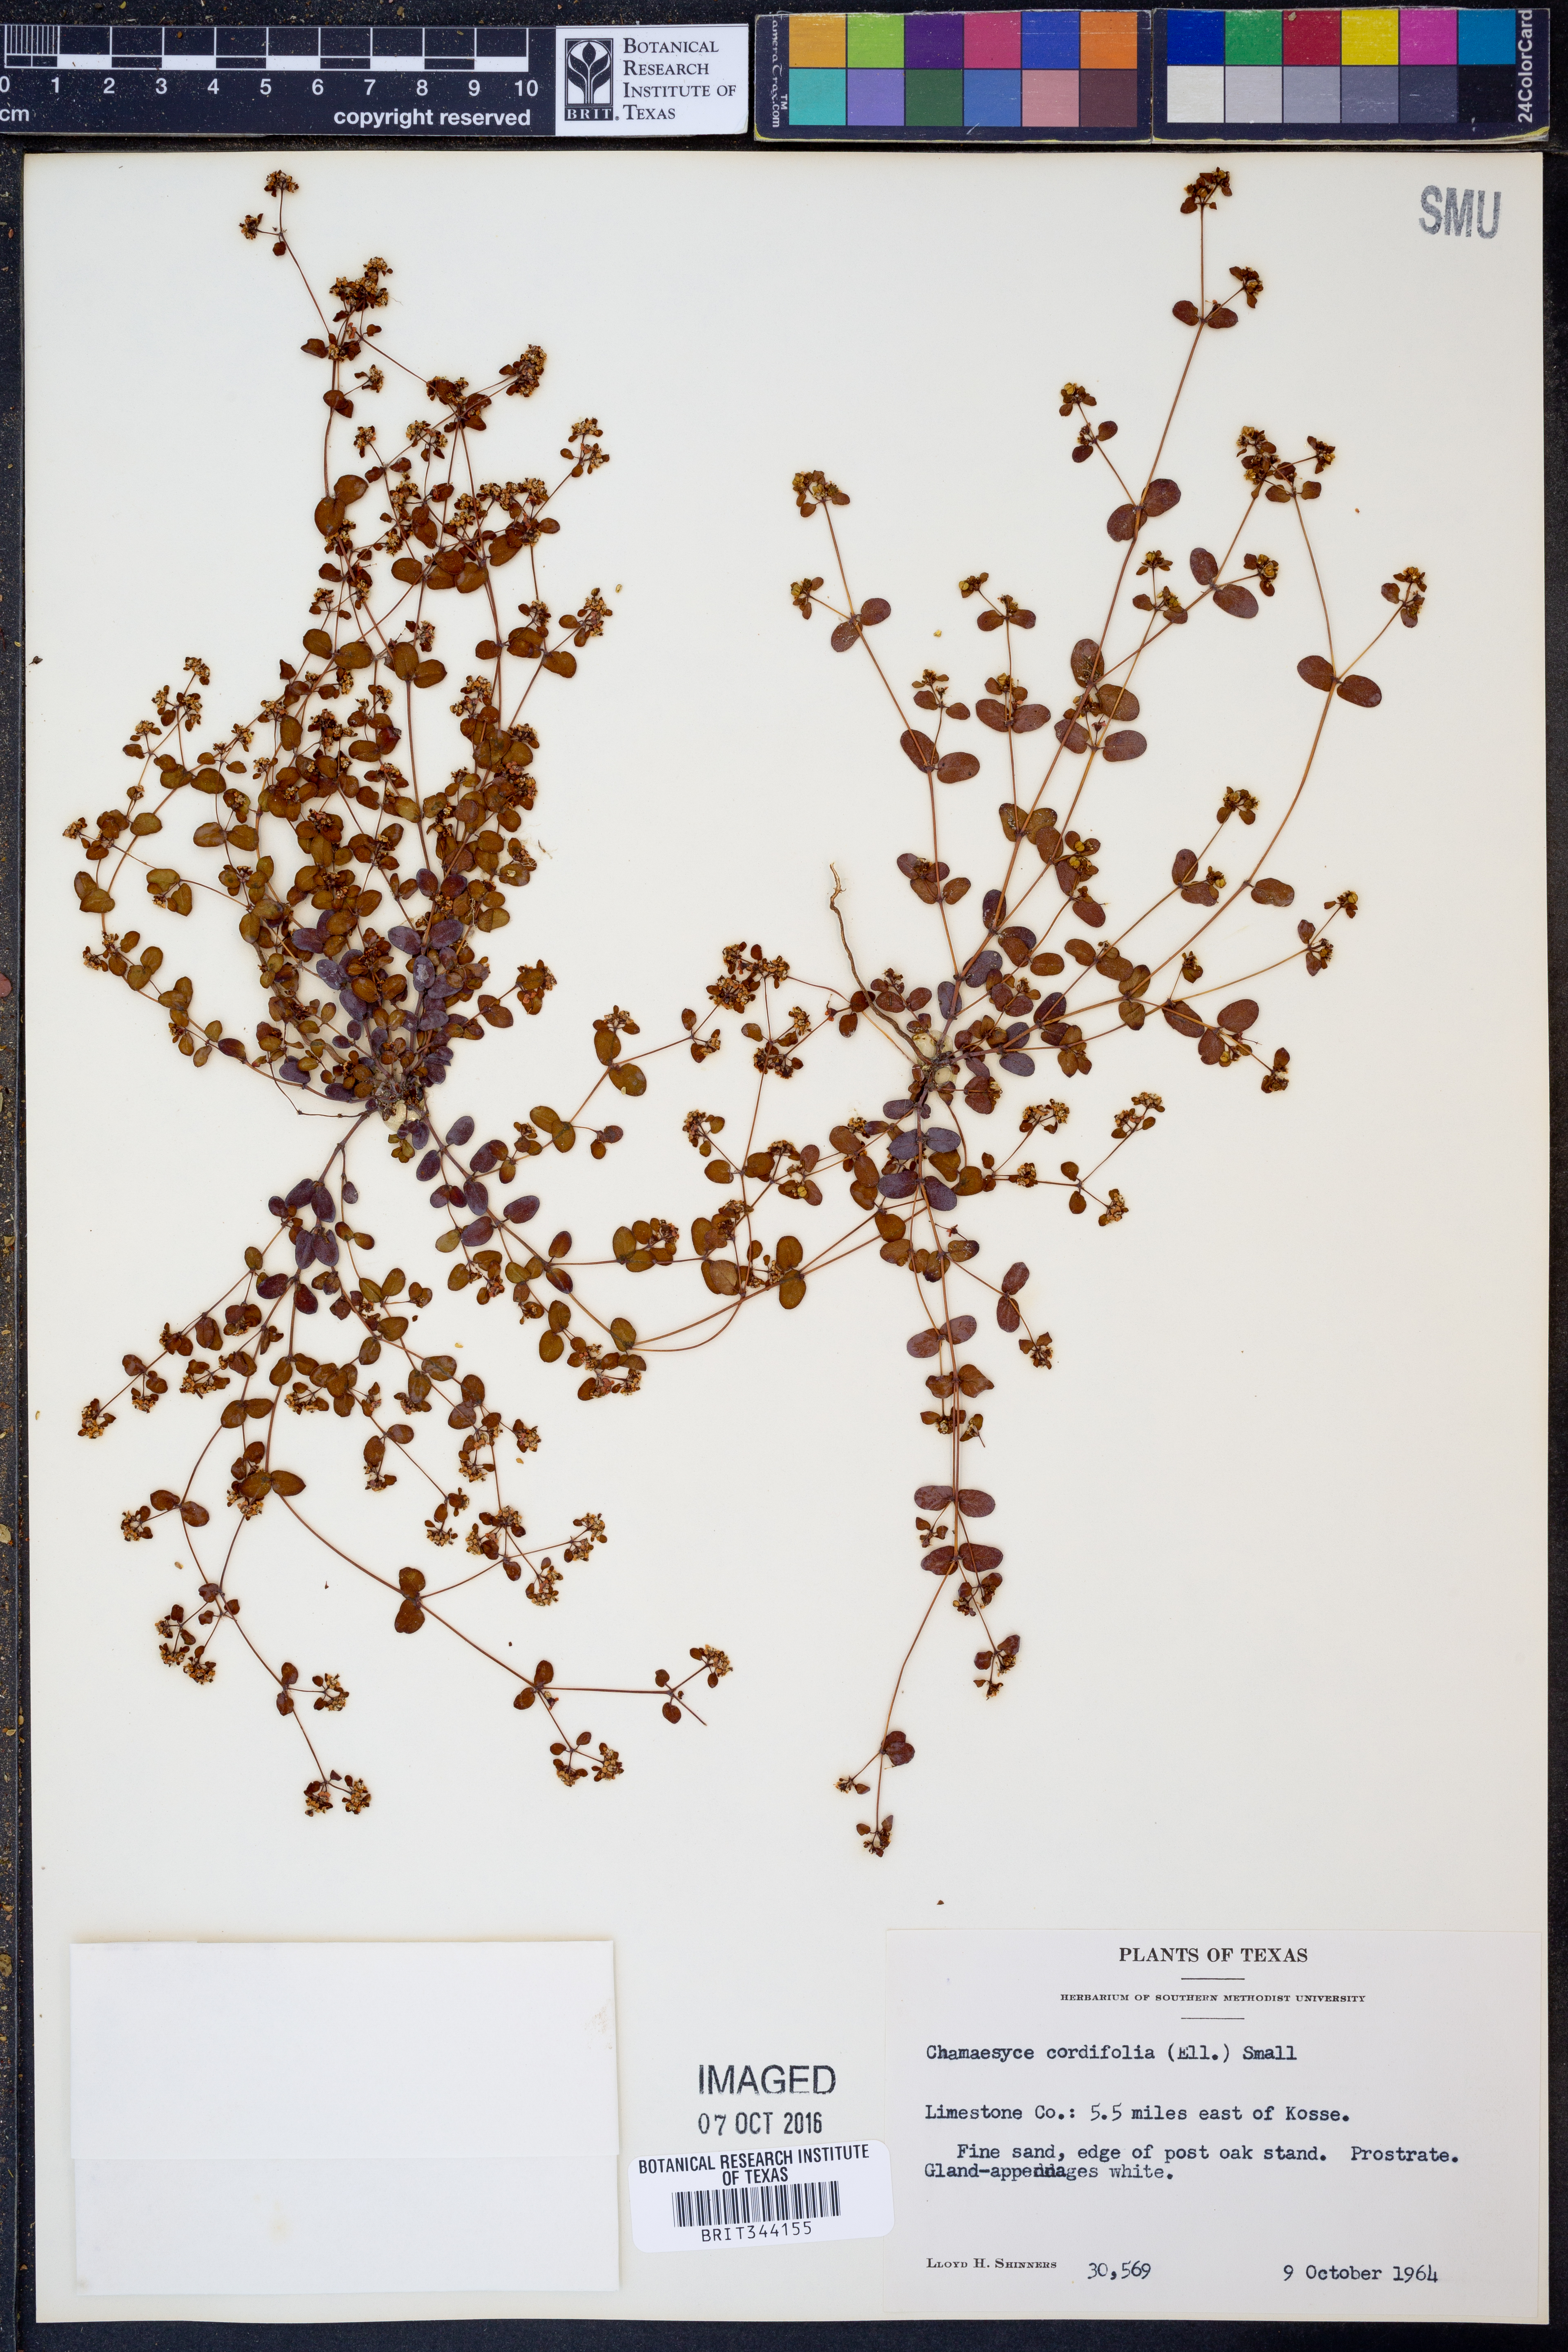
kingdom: Plantae
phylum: Tracheophyta
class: Magnoliopsida
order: Malpighiales
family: Euphorbiaceae
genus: Euphorbia
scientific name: Euphorbia cordifolia
